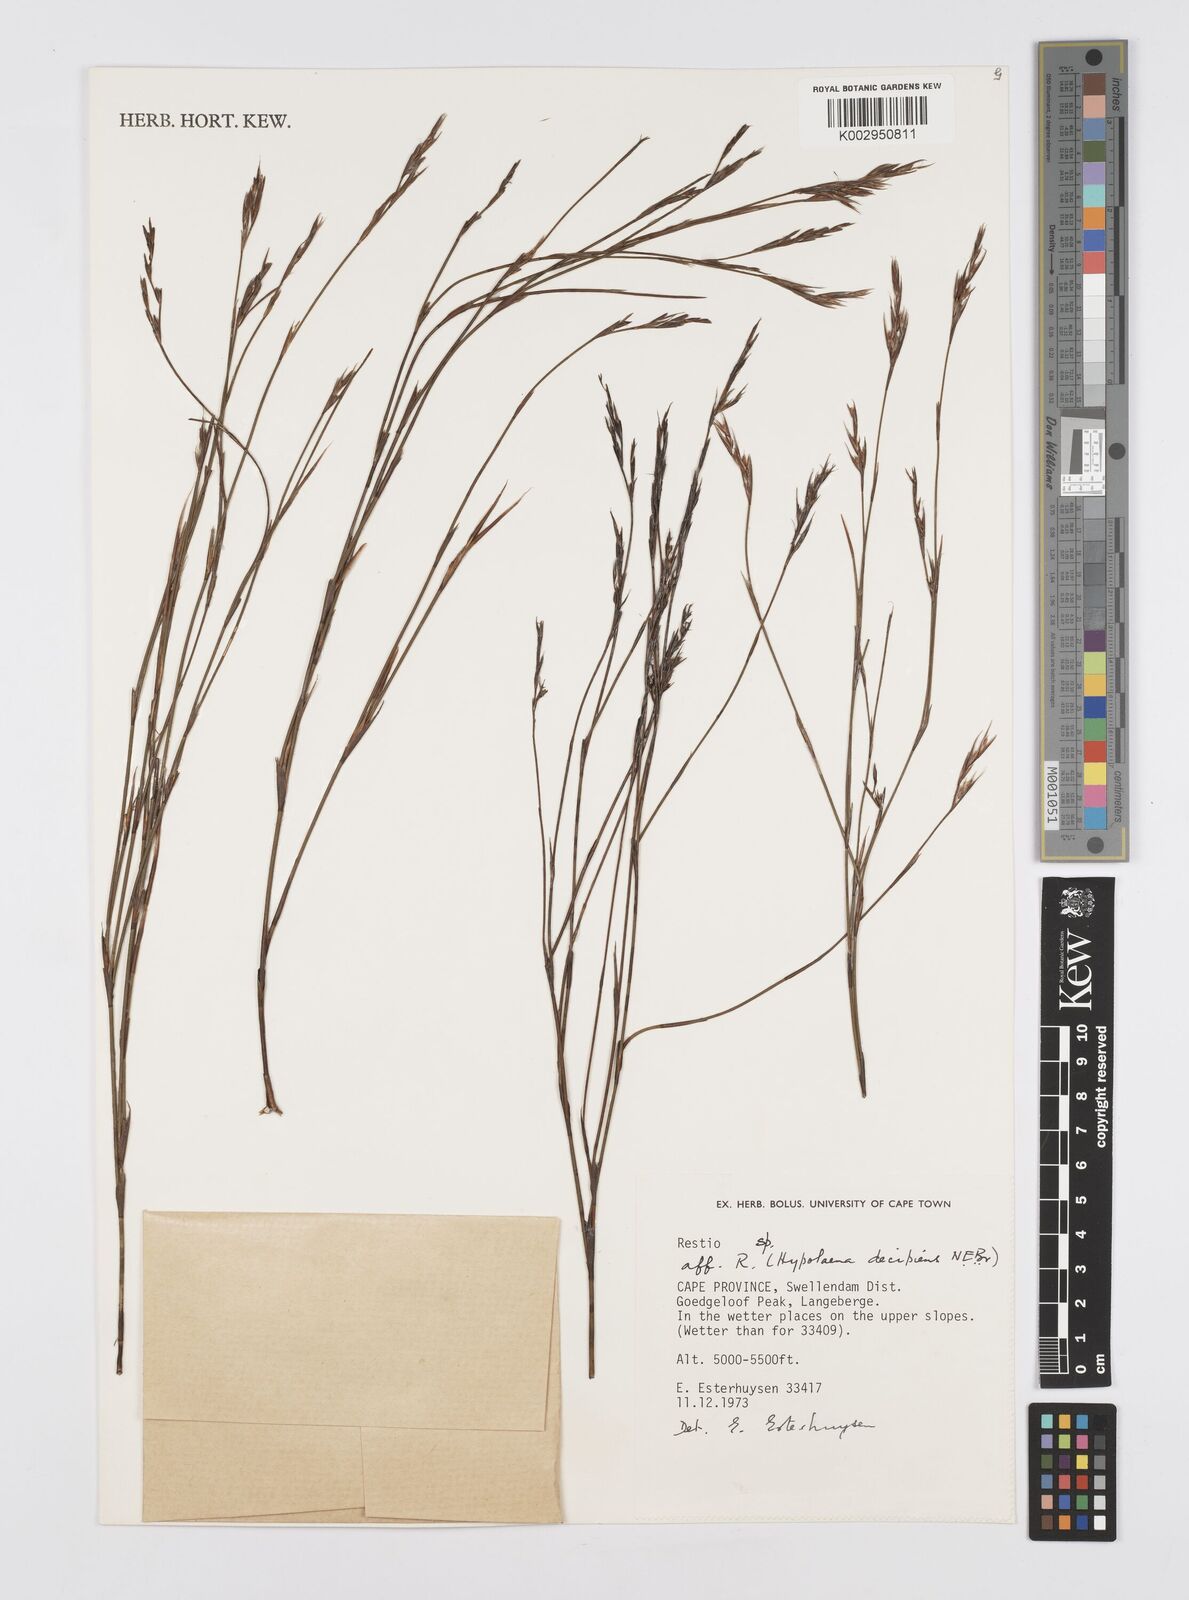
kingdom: Plantae
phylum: Tracheophyta
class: Liliopsida
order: Poales
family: Restionaceae
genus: Restio
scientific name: Restio decipiens
